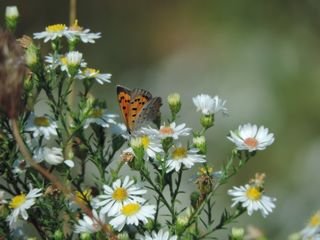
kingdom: Animalia
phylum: Arthropoda
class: Insecta
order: Lepidoptera
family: Lycaenidae
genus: Lycaena
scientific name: Lycaena phlaeas
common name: American Copper
